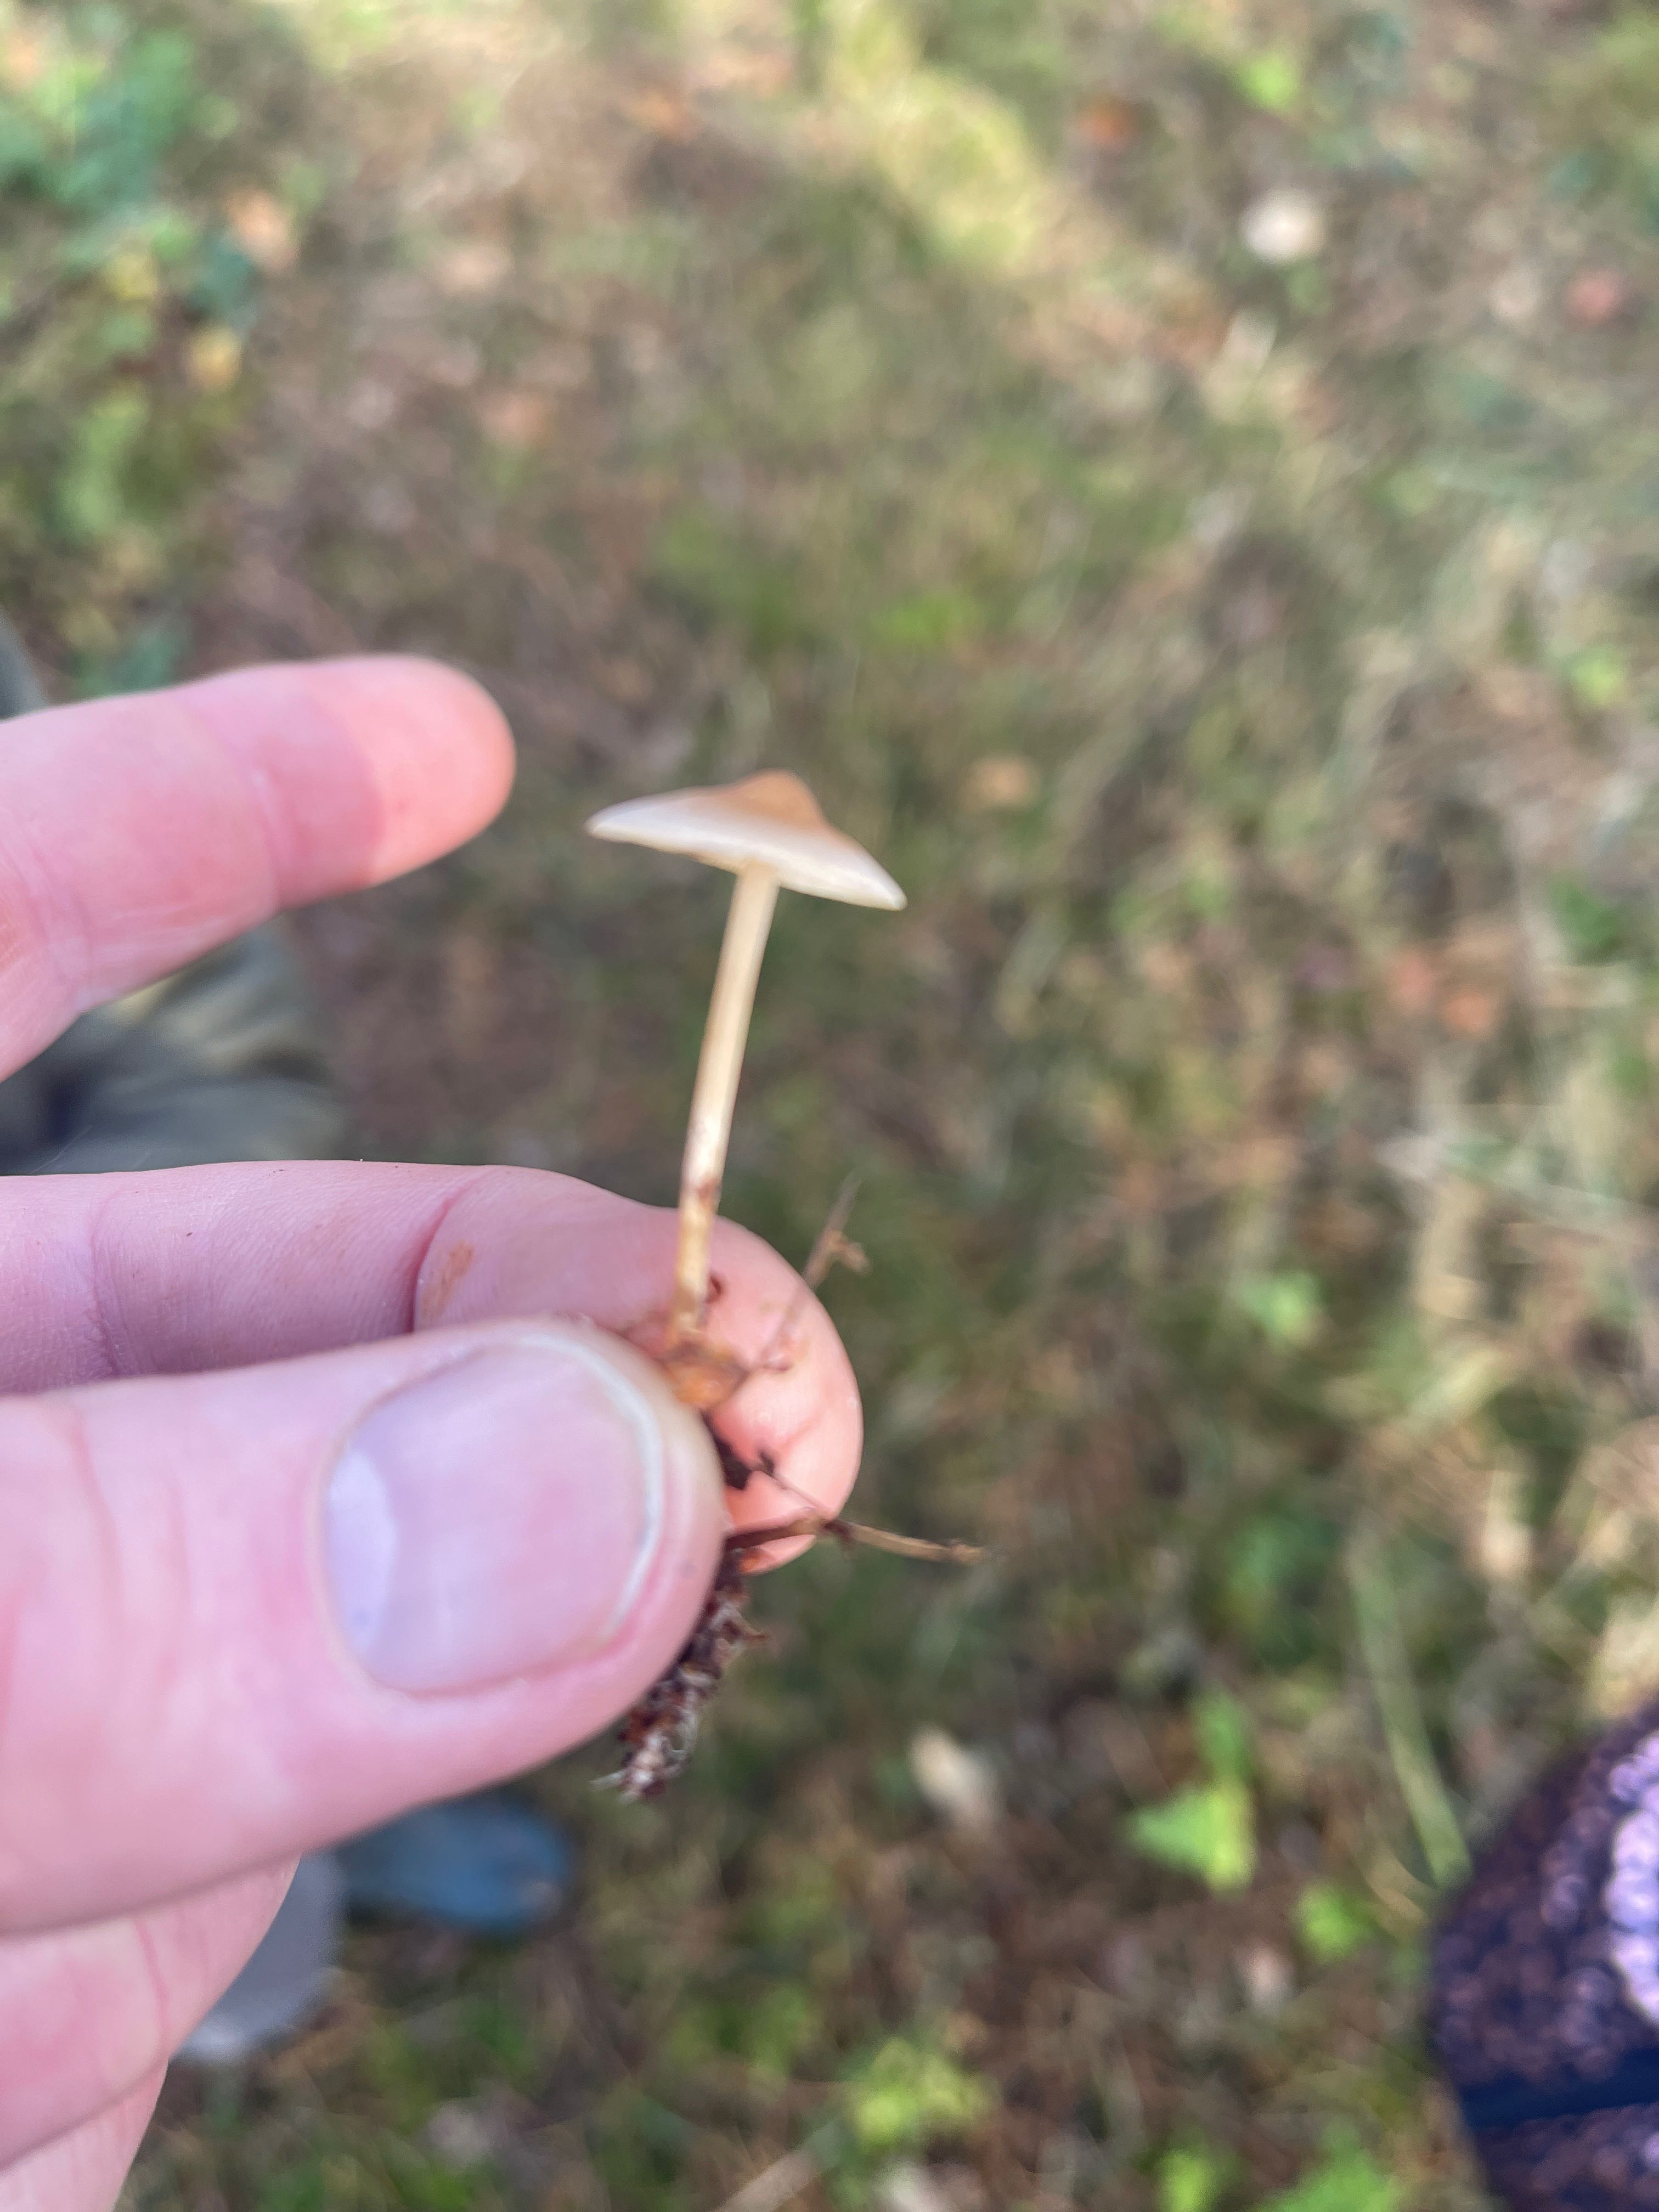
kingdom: Fungi
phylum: Basidiomycota
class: Agaricomycetes
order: Agaricales
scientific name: Agaricales
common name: champignonordenen
